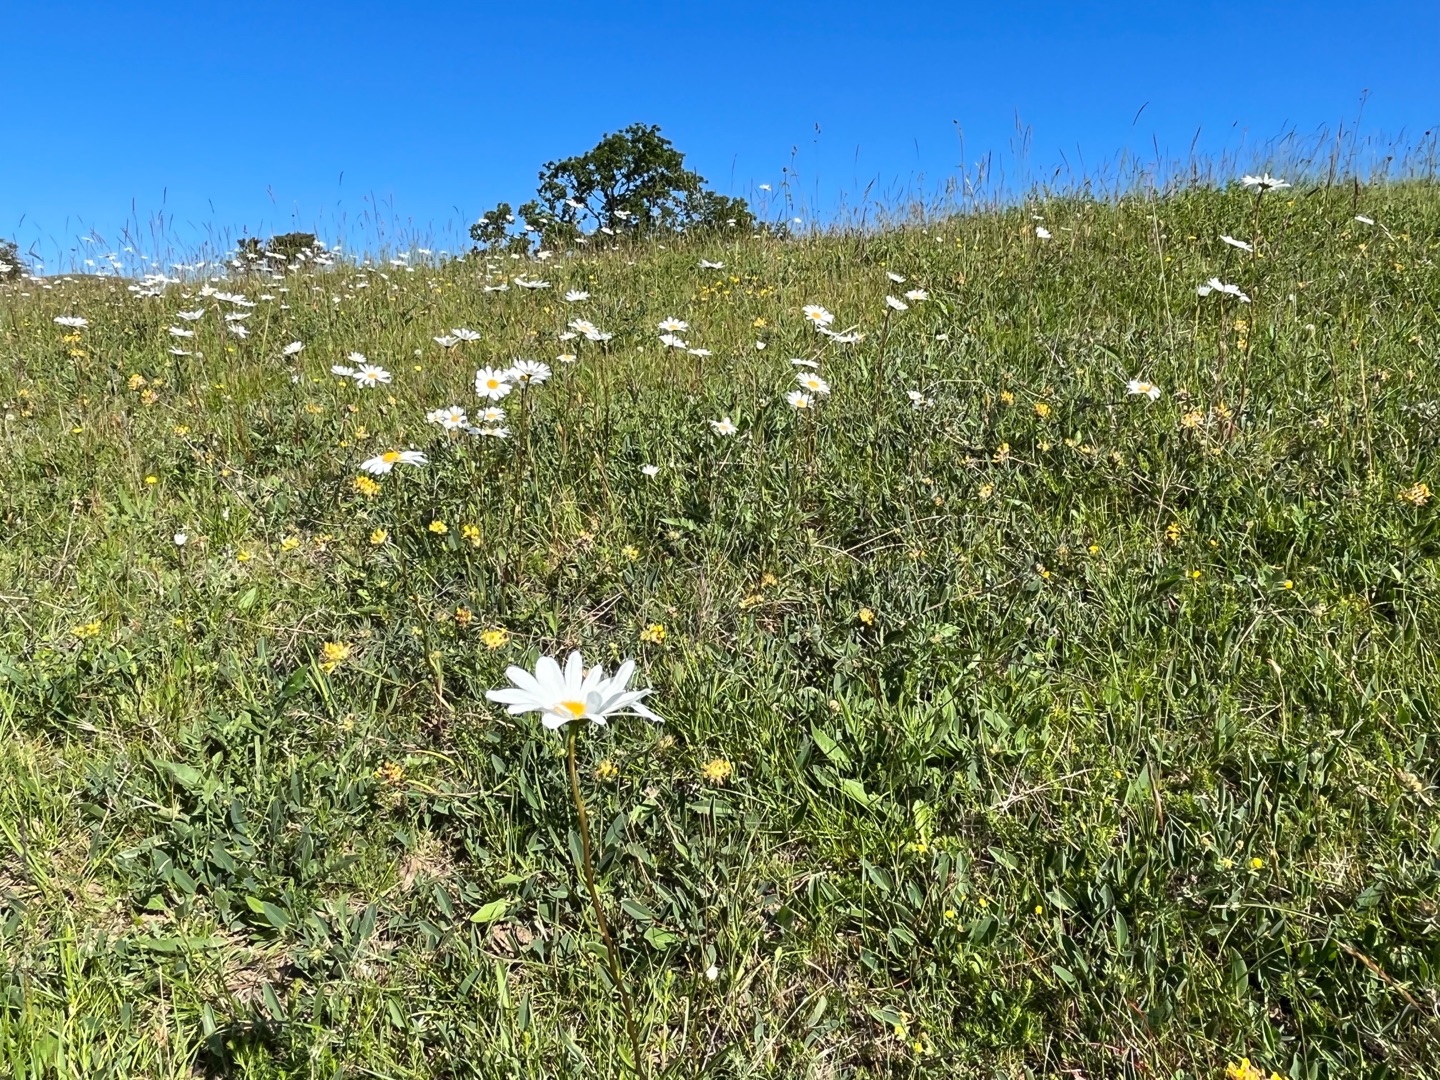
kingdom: Plantae
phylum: Tracheophyta
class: Magnoliopsida
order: Asterales
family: Asteraceae
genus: Leucanthemum
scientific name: Leucanthemum vulgare
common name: Hvid okseøje
